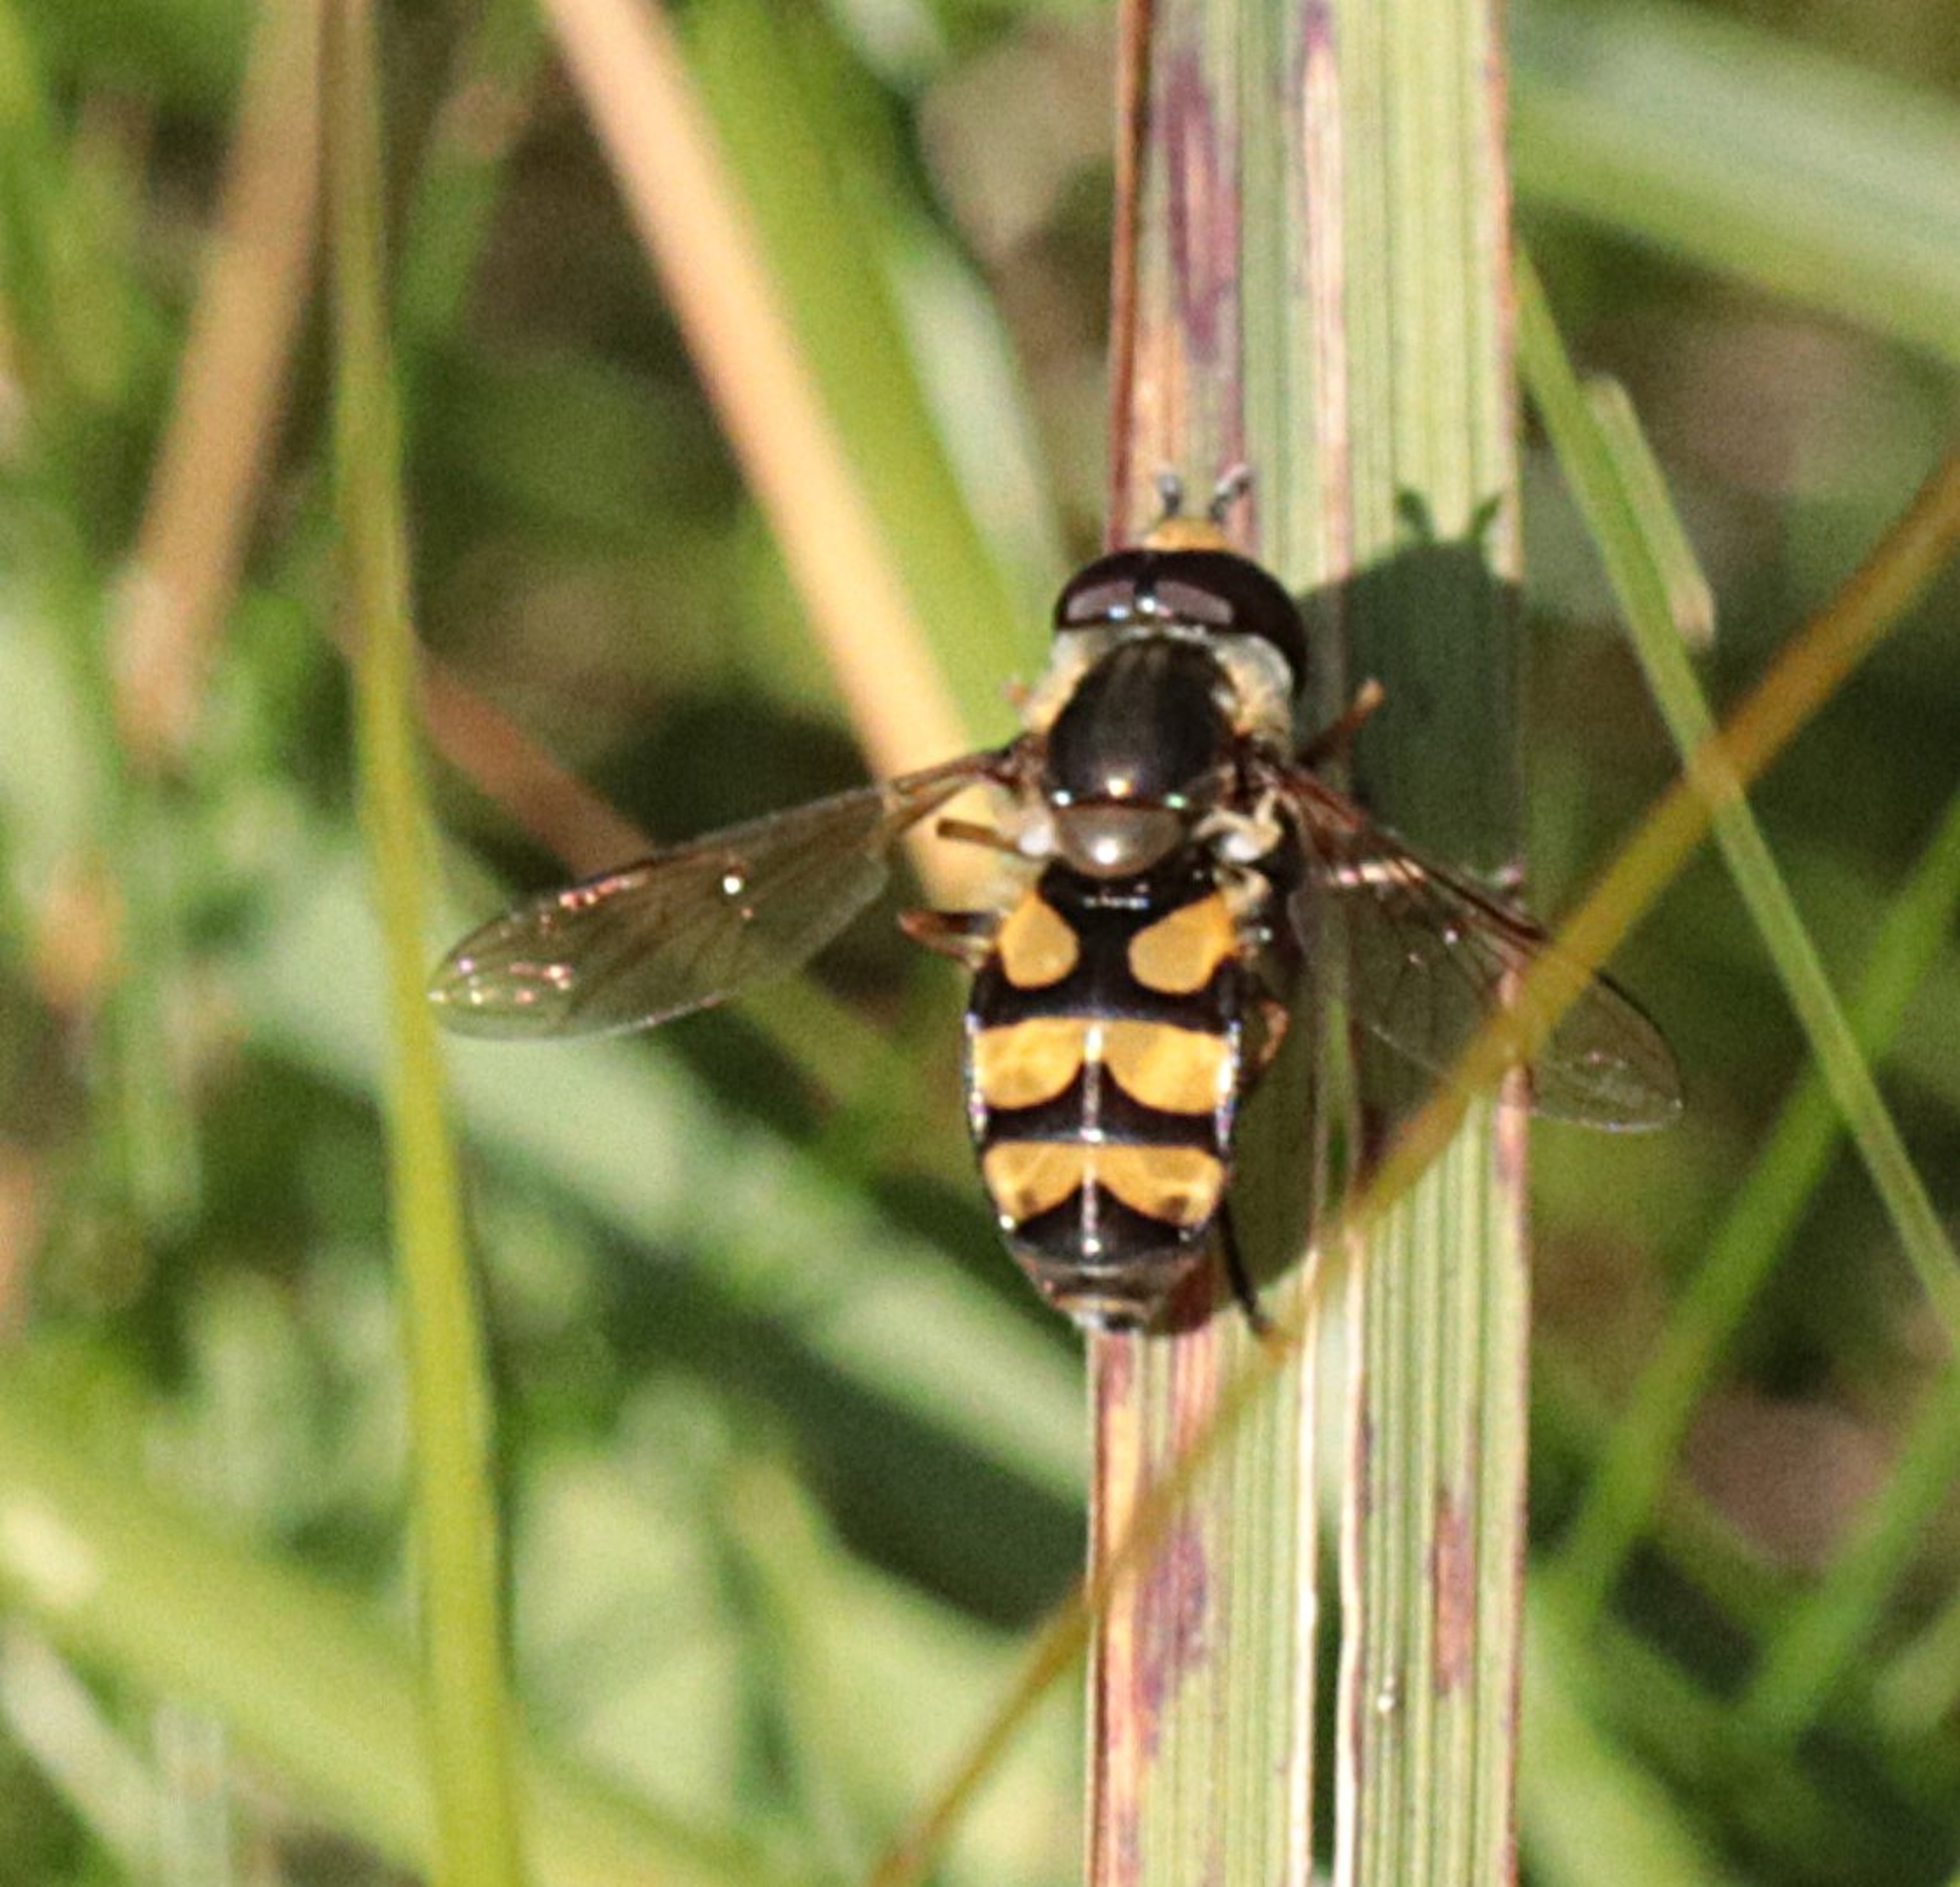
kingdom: Animalia
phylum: Arthropoda
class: Insecta
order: Diptera
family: Syrphidae
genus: Didea
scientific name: Didea fasciata
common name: Lys buesvirreflue
